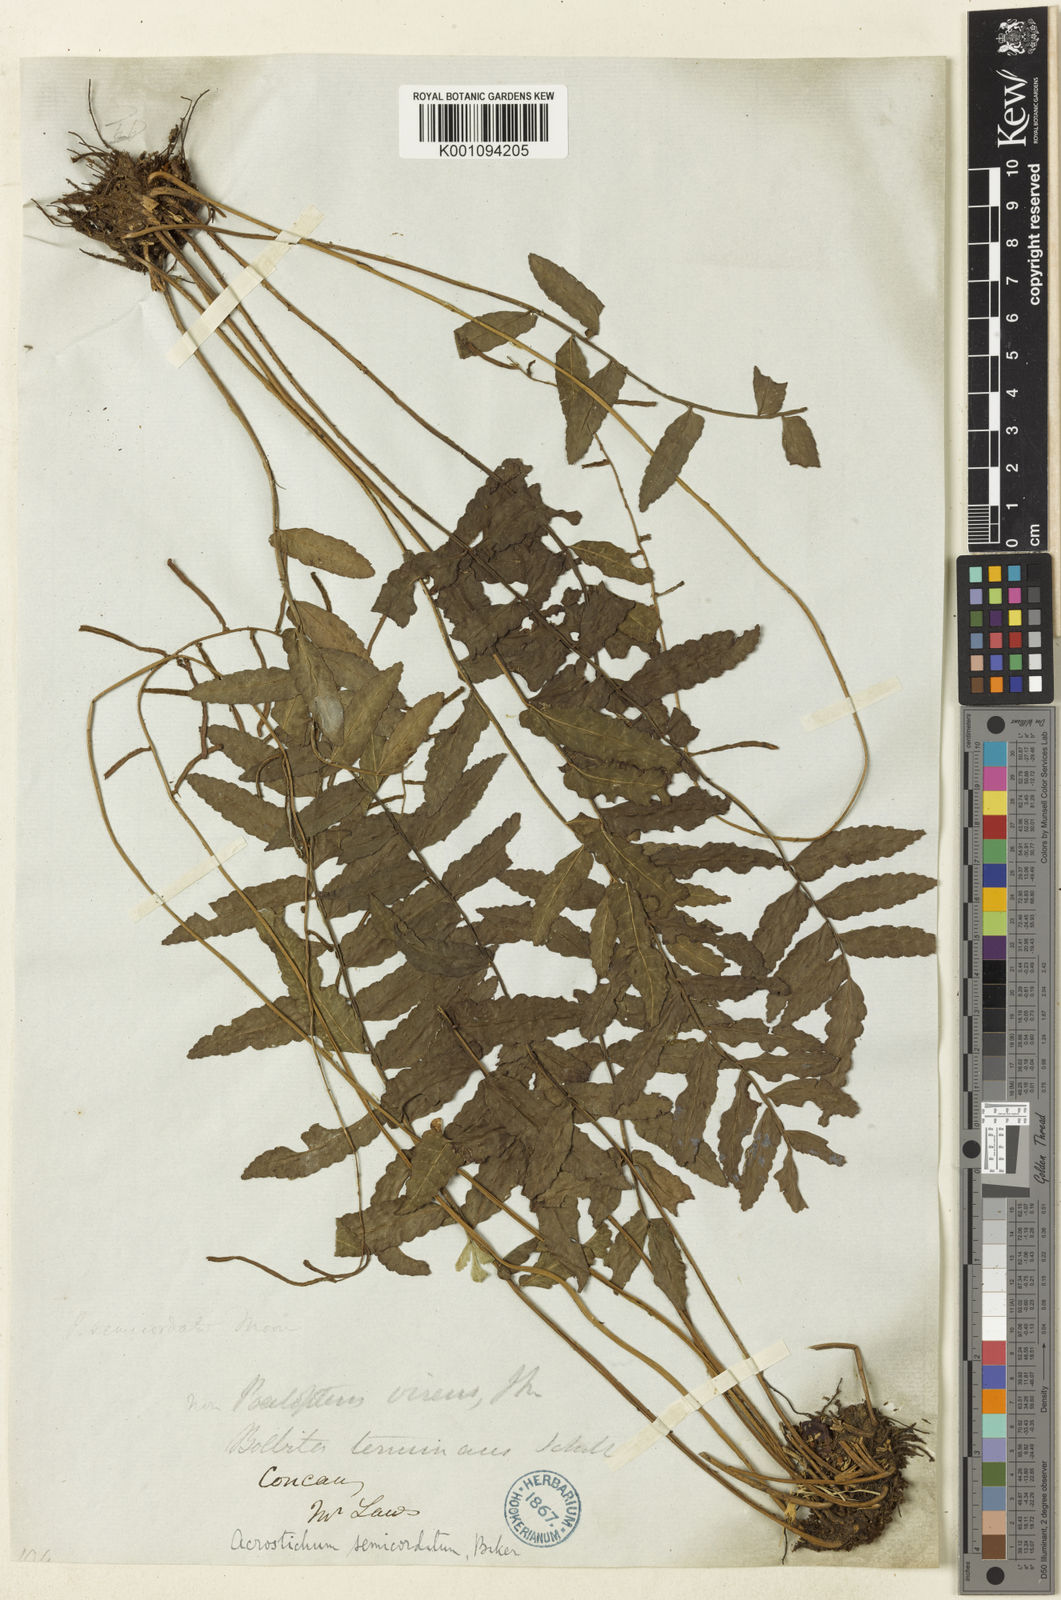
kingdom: Plantae
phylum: Tracheophyta
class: Polypodiopsida
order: Polypodiales
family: Dryopteridaceae
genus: Bolbitis
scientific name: Bolbitis semicordata
